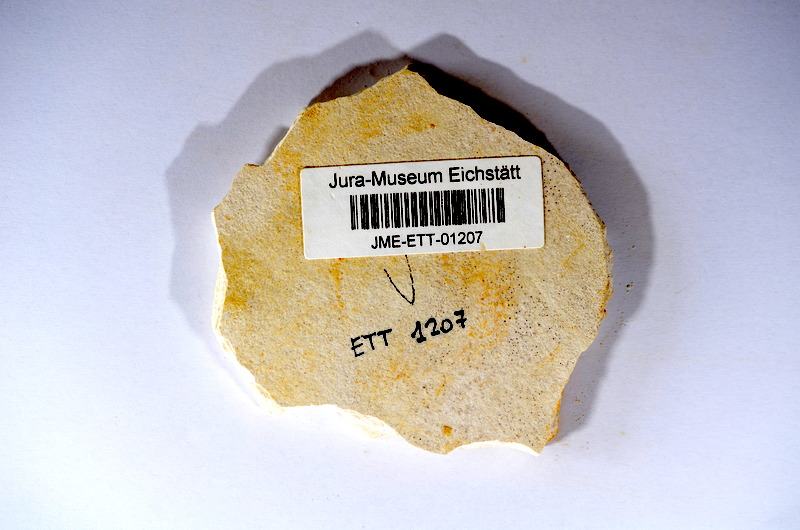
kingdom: Animalia
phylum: Chordata
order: Salmoniformes
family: Orthogonikleithridae
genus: Orthogonikleithrus
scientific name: Orthogonikleithrus hoelli
